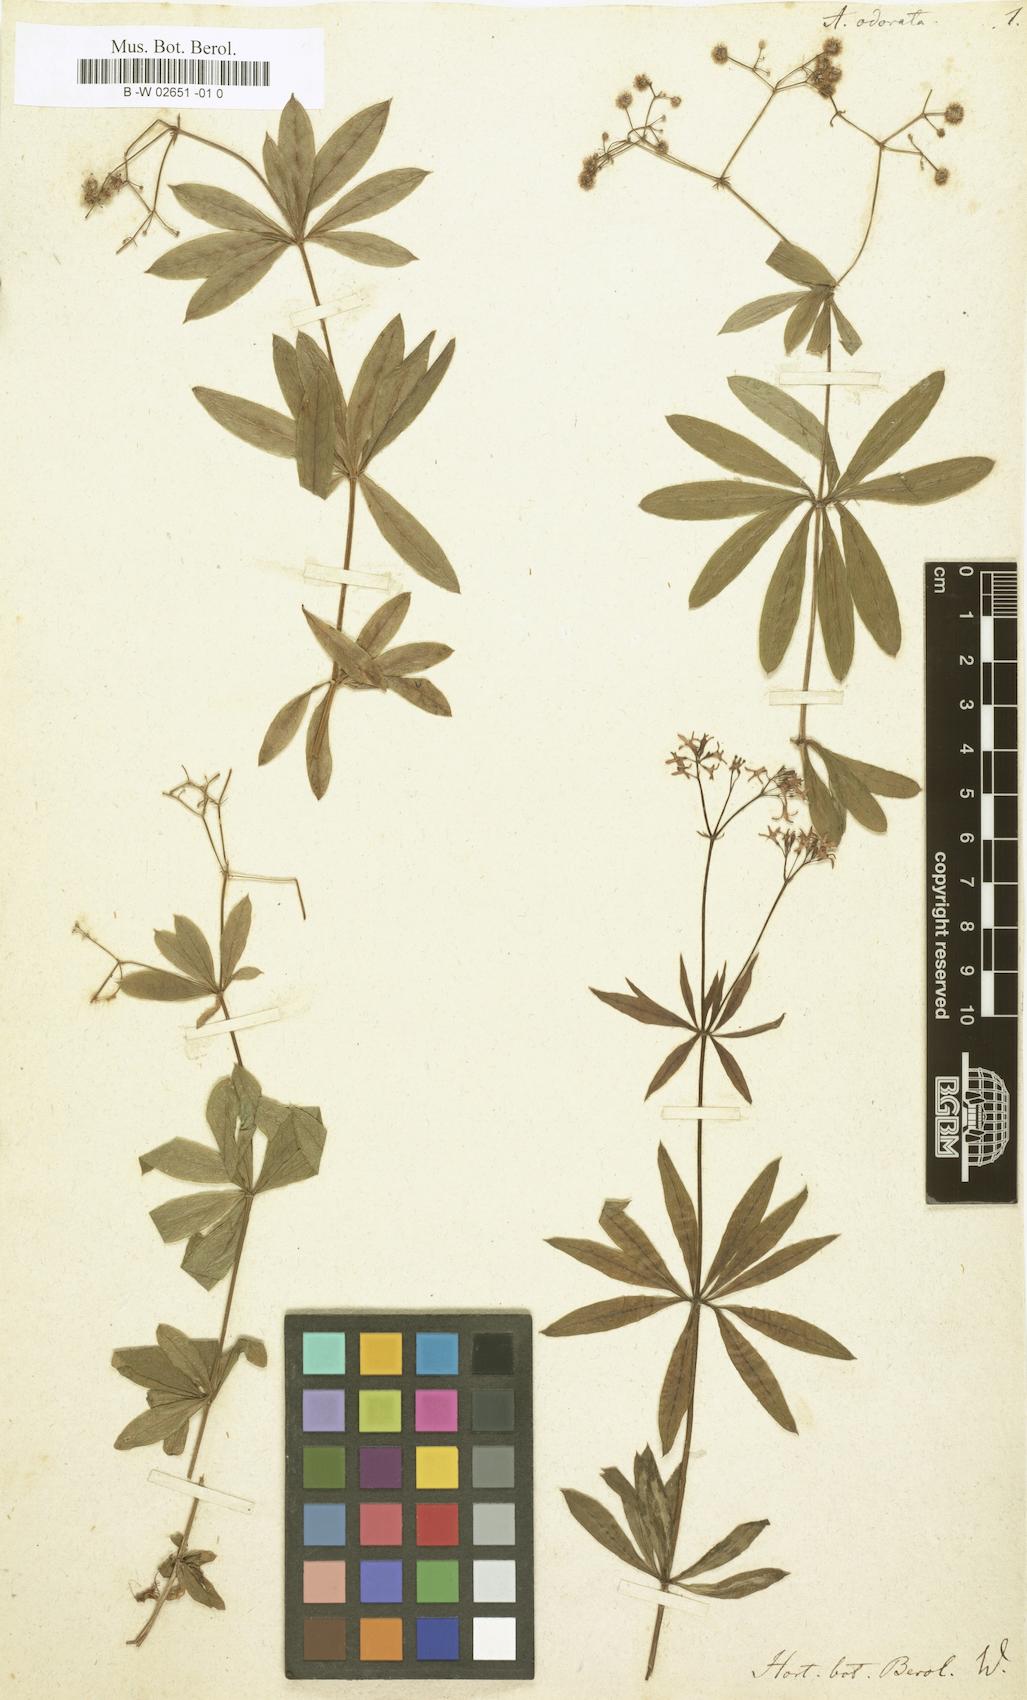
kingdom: Plantae
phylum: Tracheophyta
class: Magnoliopsida
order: Gentianales
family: Rubiaceae
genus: Galium
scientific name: Galium odoratum
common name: Sweet woodruff
